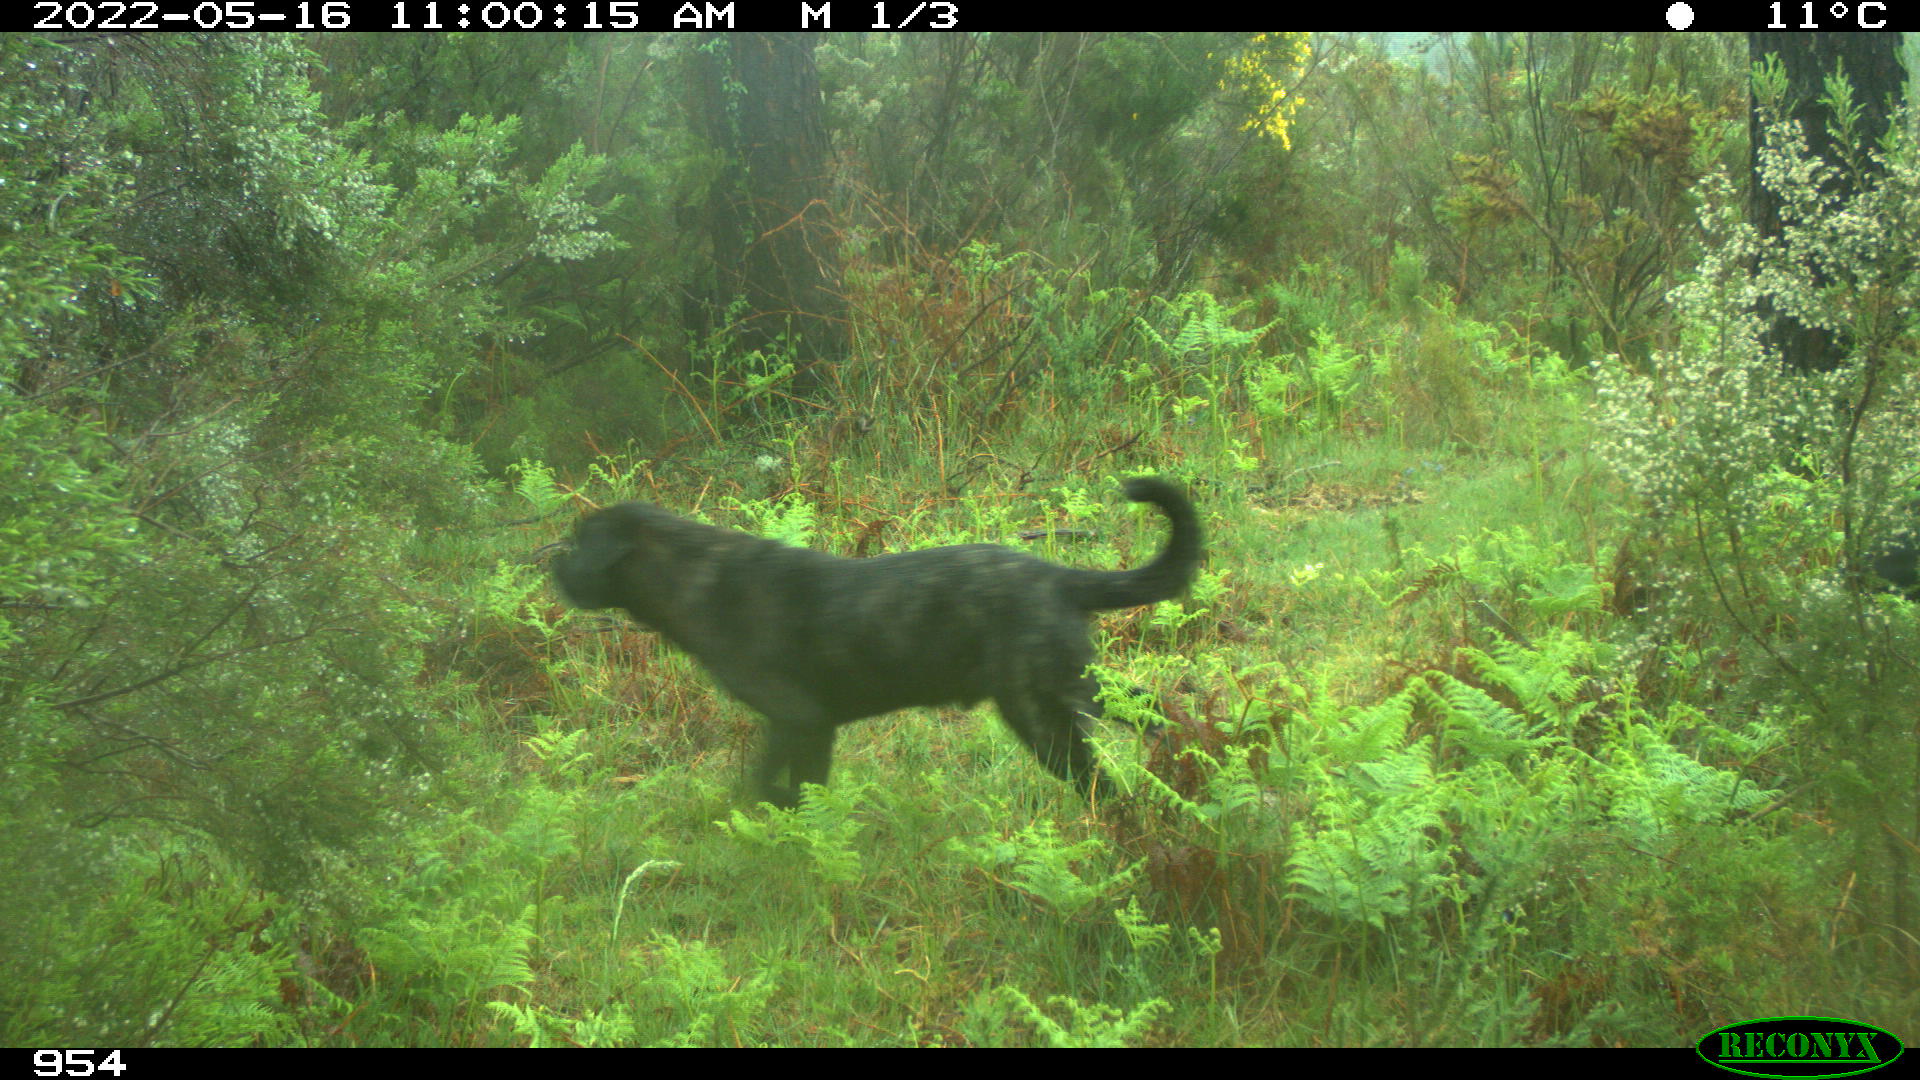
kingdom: Animalia
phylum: Chordata
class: Mammalia
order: Carnivora
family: Canidae
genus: Canis
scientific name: Canis lupus
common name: Gray wolf
